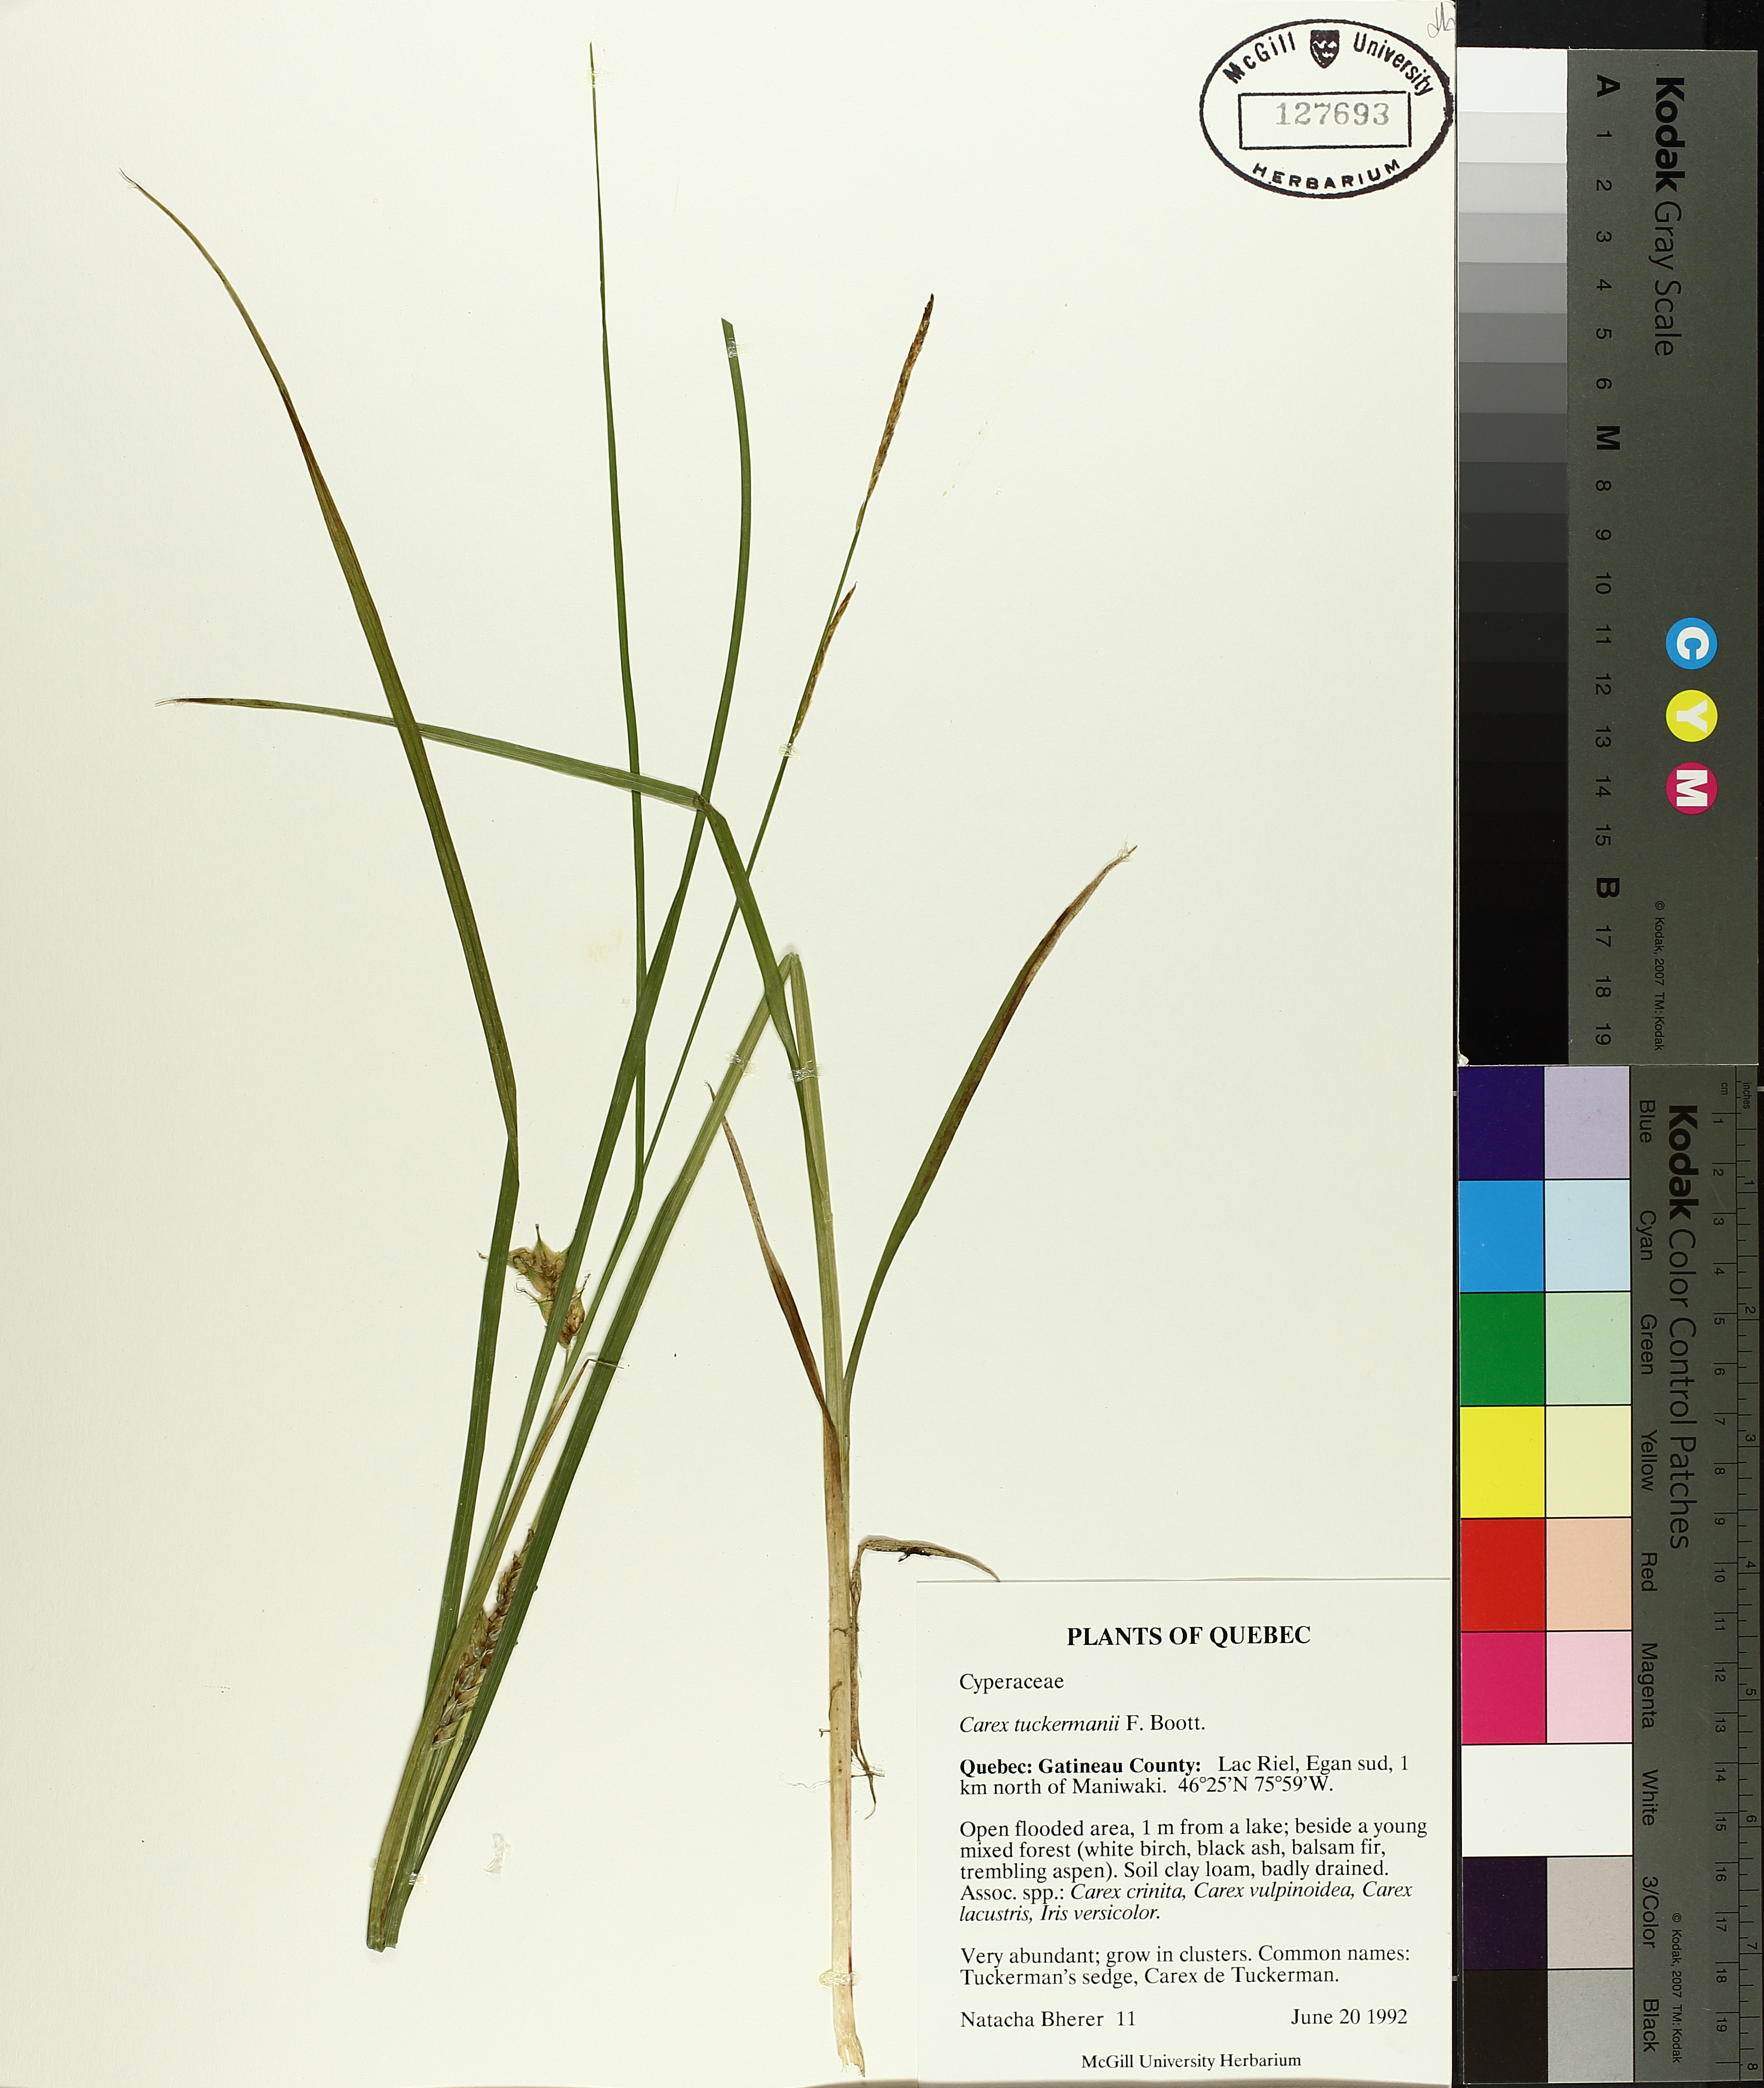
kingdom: Plantae
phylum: Tracheophyta
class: Liliopsida
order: Poales
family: Cyperaceae
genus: Carex
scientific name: Carex tuckermanii
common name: Tuckerman's sedge
